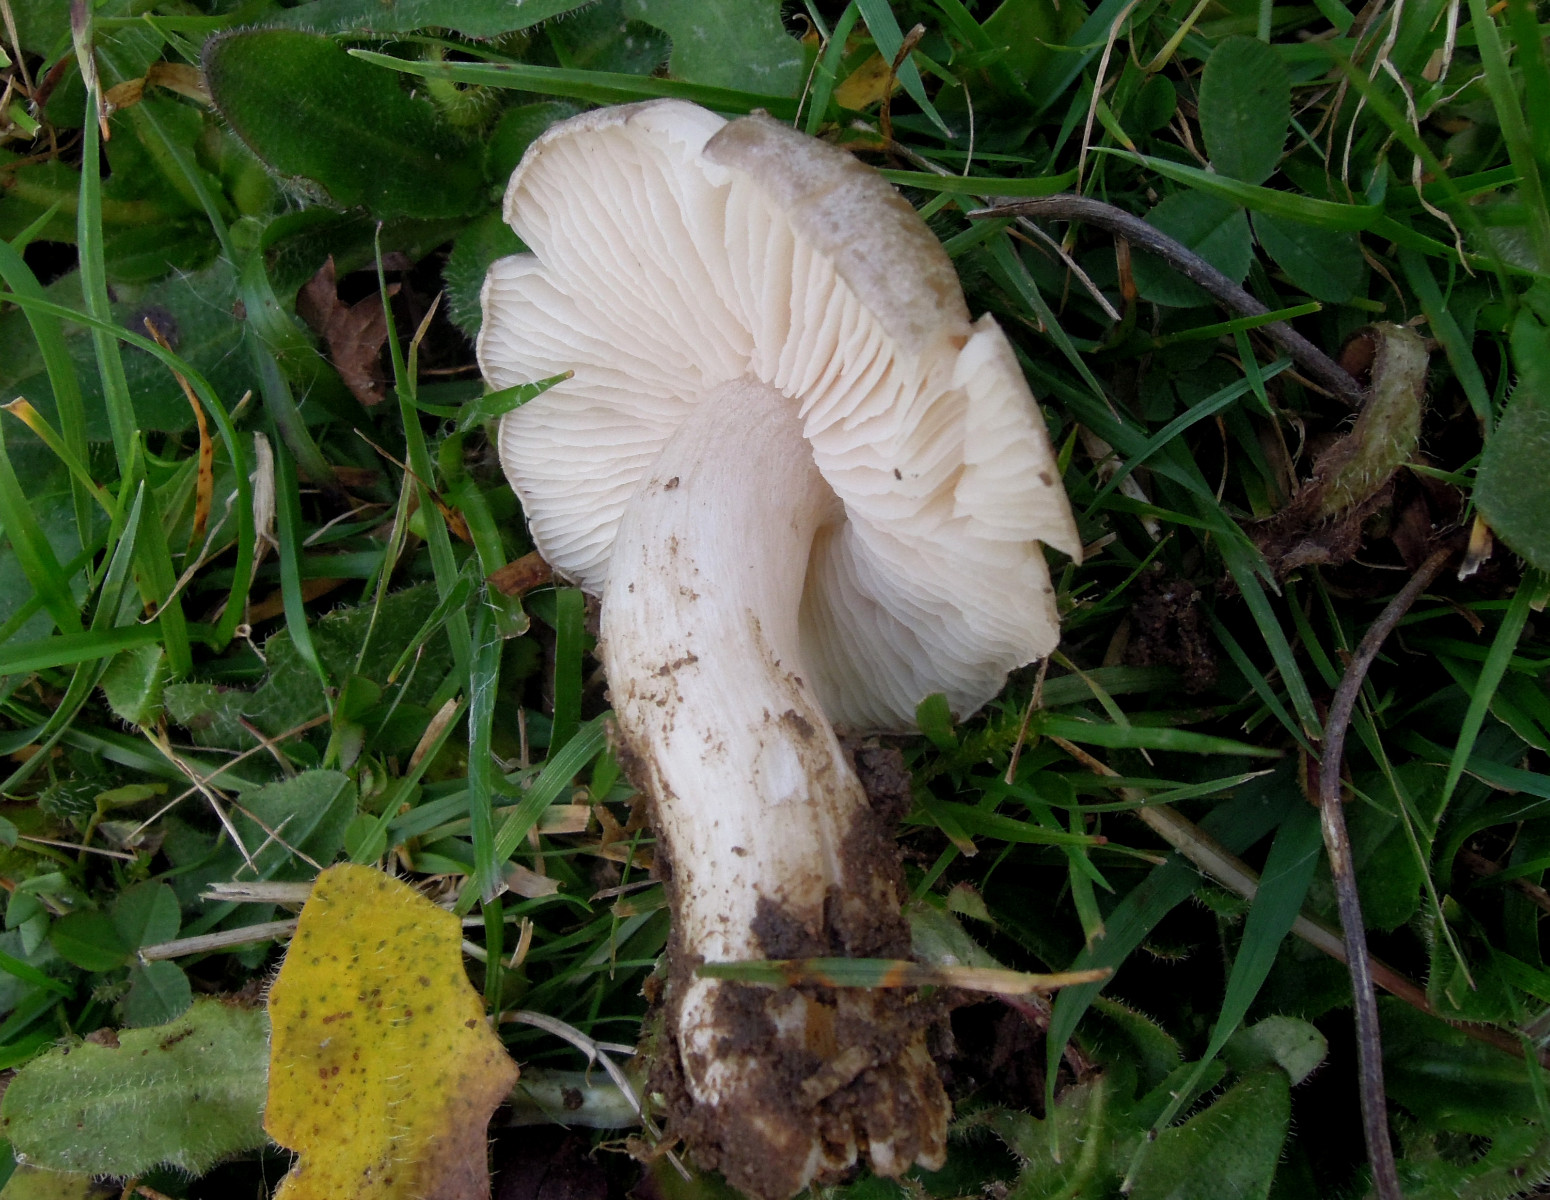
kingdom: Fungi
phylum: Basidiomycota
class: Agaricomycetes
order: Agaricales
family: Entolomataceae
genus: Entoloma
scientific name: Entoloma prunuloides
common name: mel-rødblad
